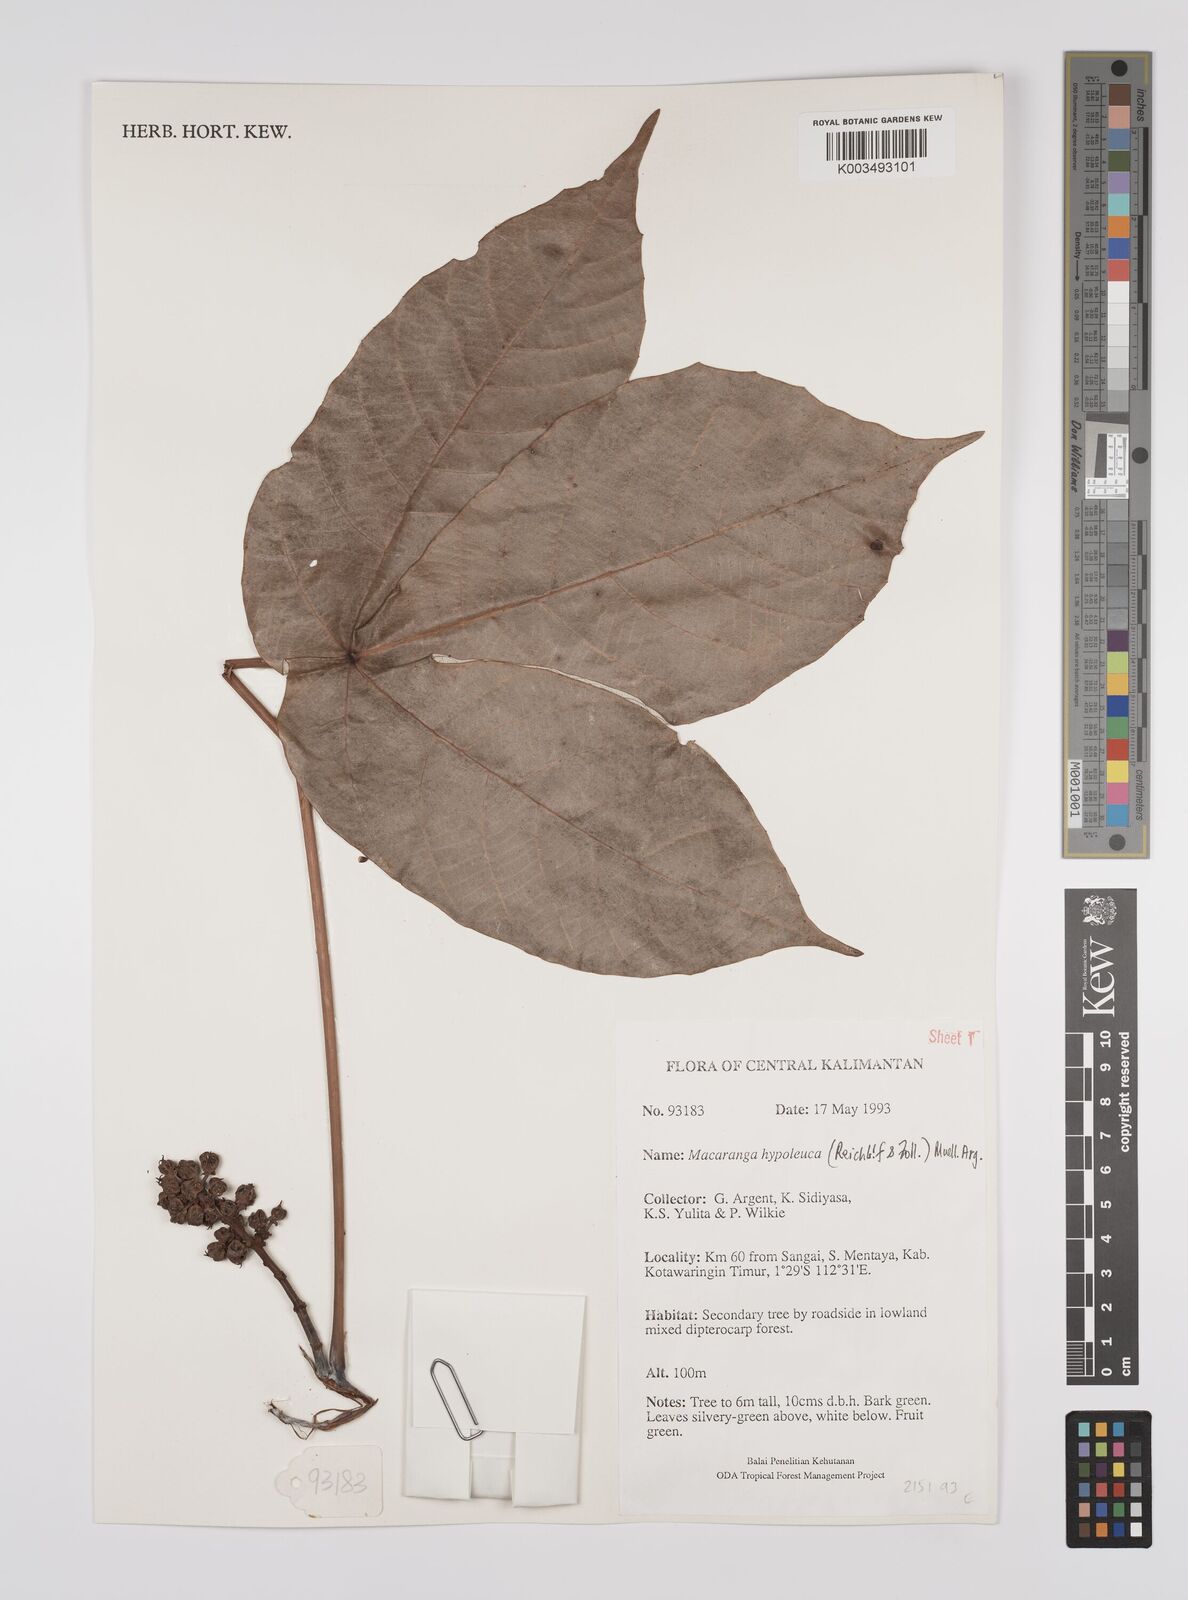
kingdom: Plantae
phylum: Tracheophyta
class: Magnoliopsida
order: Malpighiales
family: Euphorbiaceae
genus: Macaranga
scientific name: Macaranga hypoleuca
